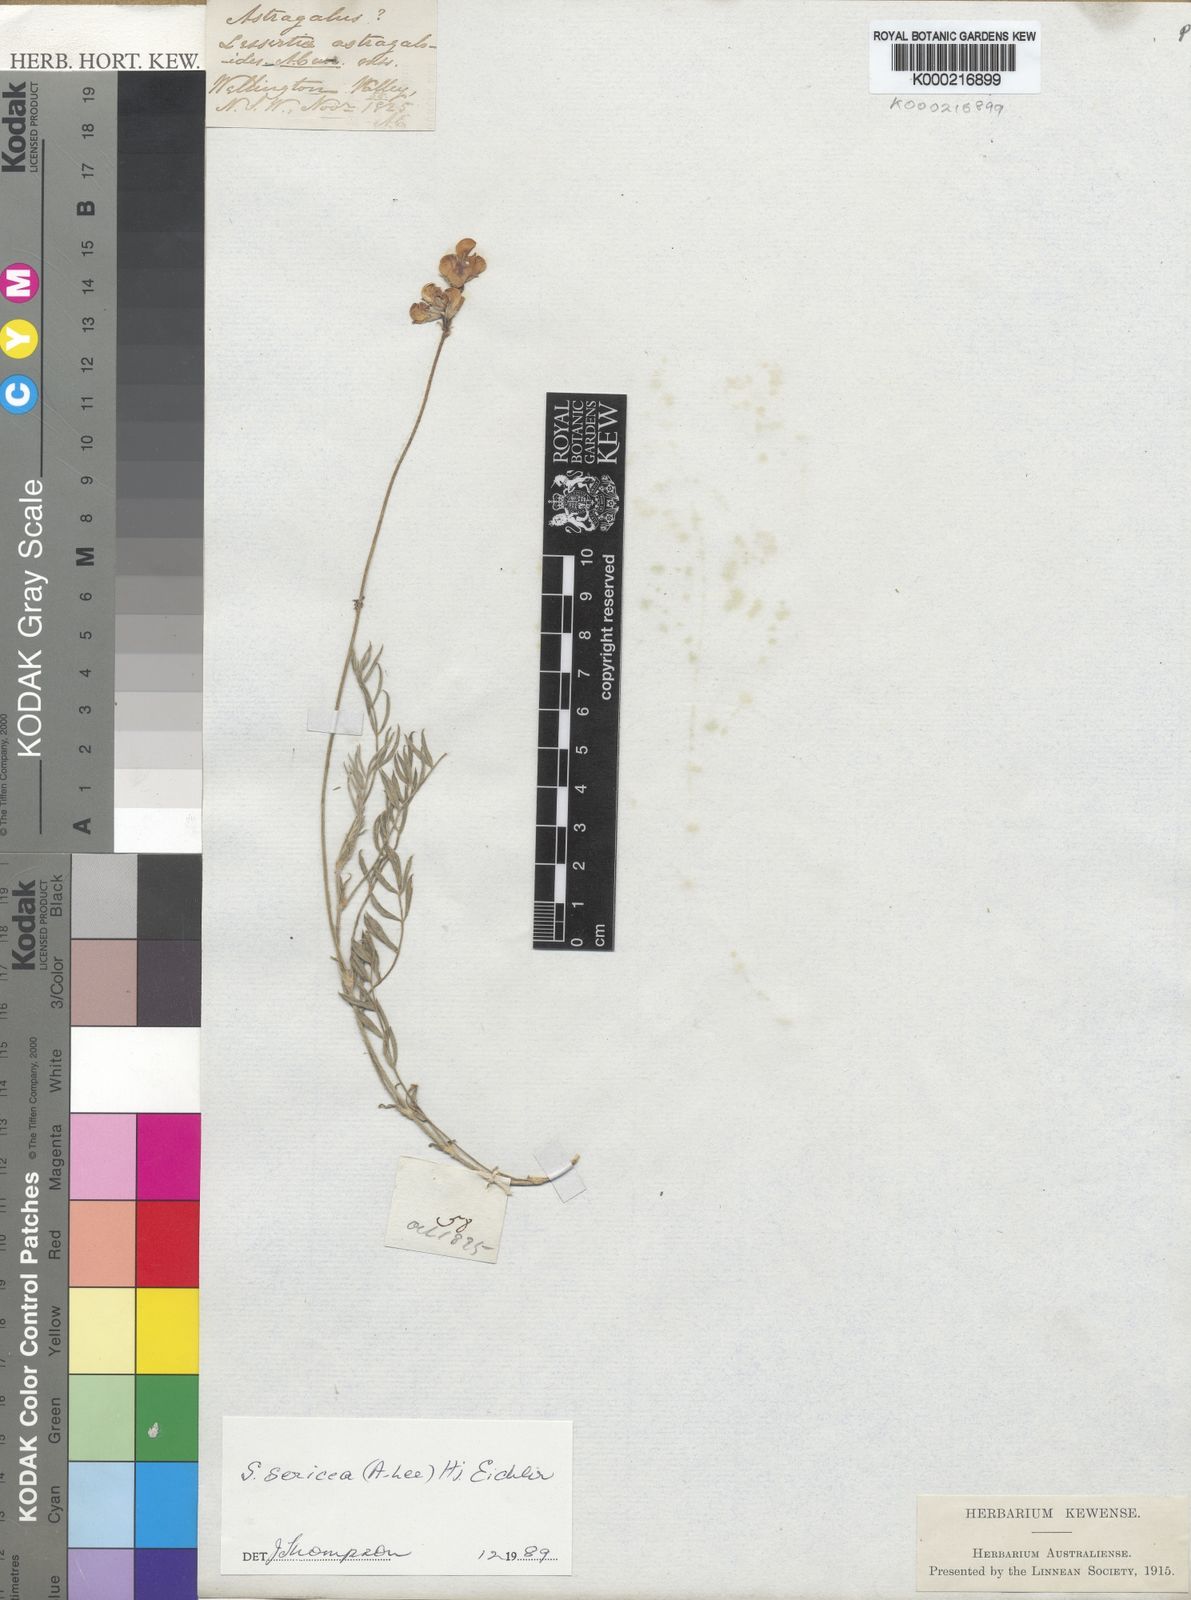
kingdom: Plantae
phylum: Tracheophyta
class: Magnoliopsida
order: Fabales
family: Fabaceae
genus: Swainsona
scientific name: Swainsona sericea
